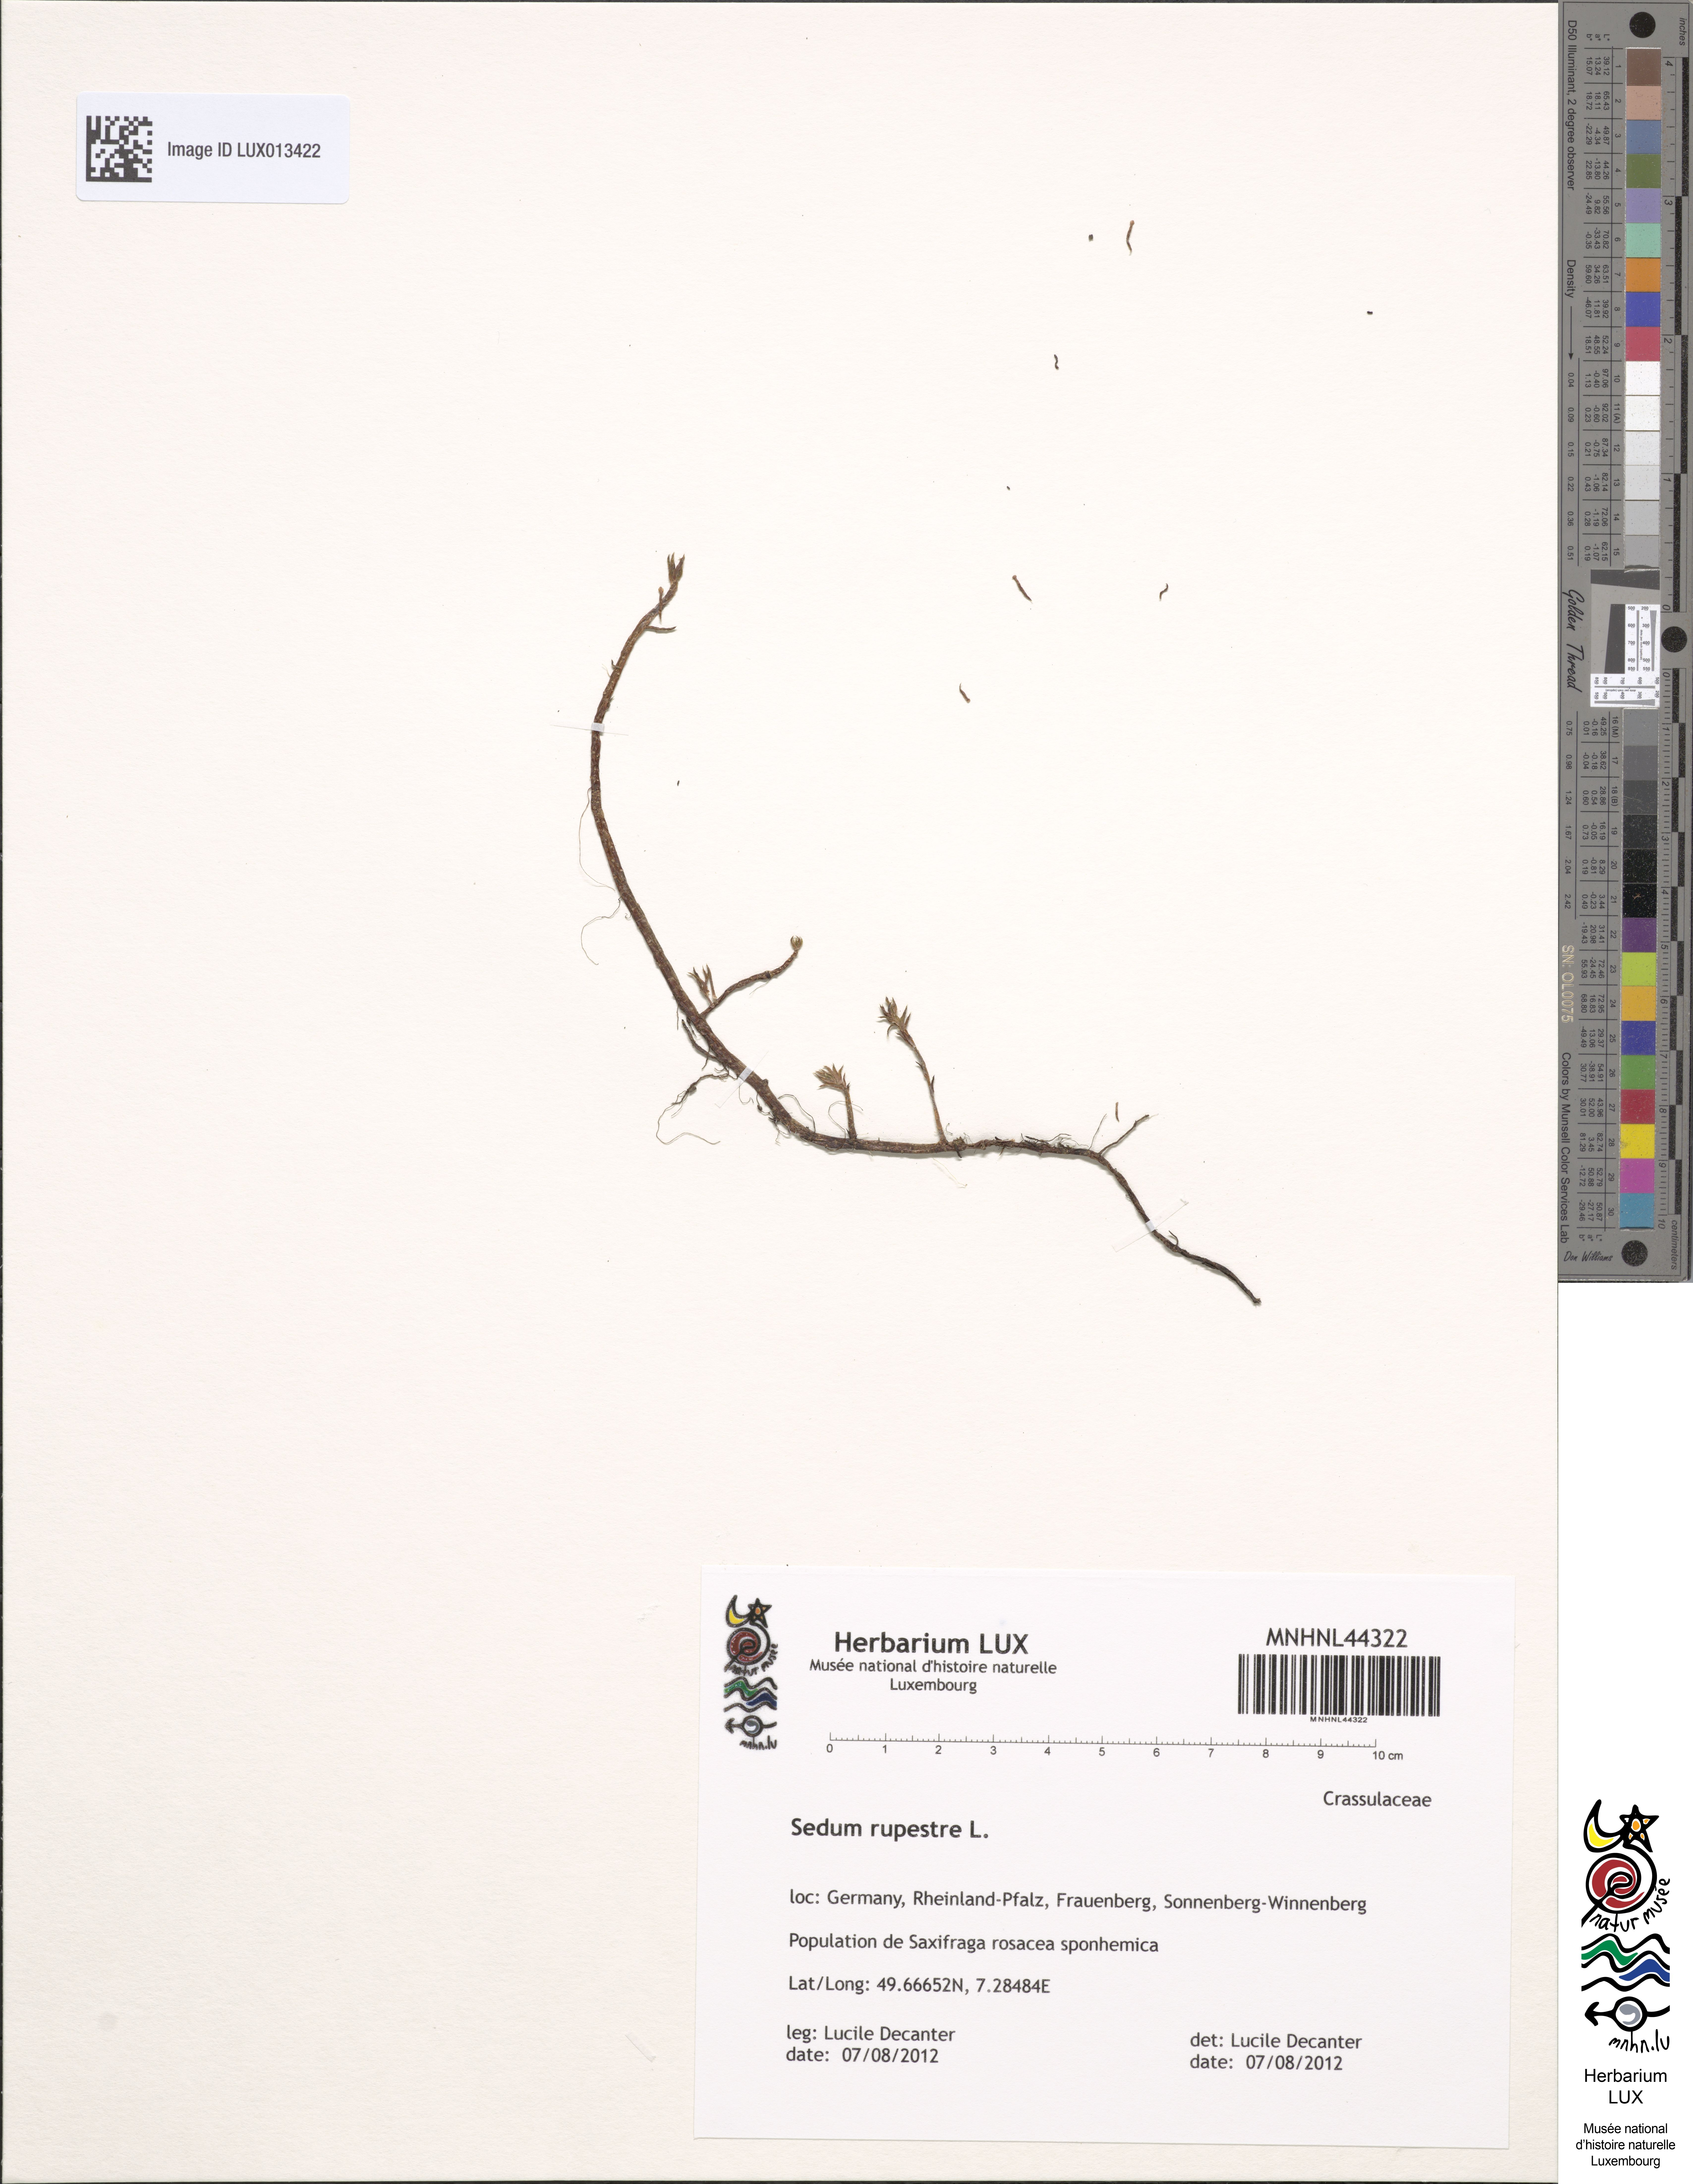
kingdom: Plantae
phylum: Tracheophyta
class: Magnoliopsida
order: Saxifragales
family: Crassulaceae
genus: Petrosedum
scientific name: Petrosedum rupestre
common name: Jenny's stonecrop
